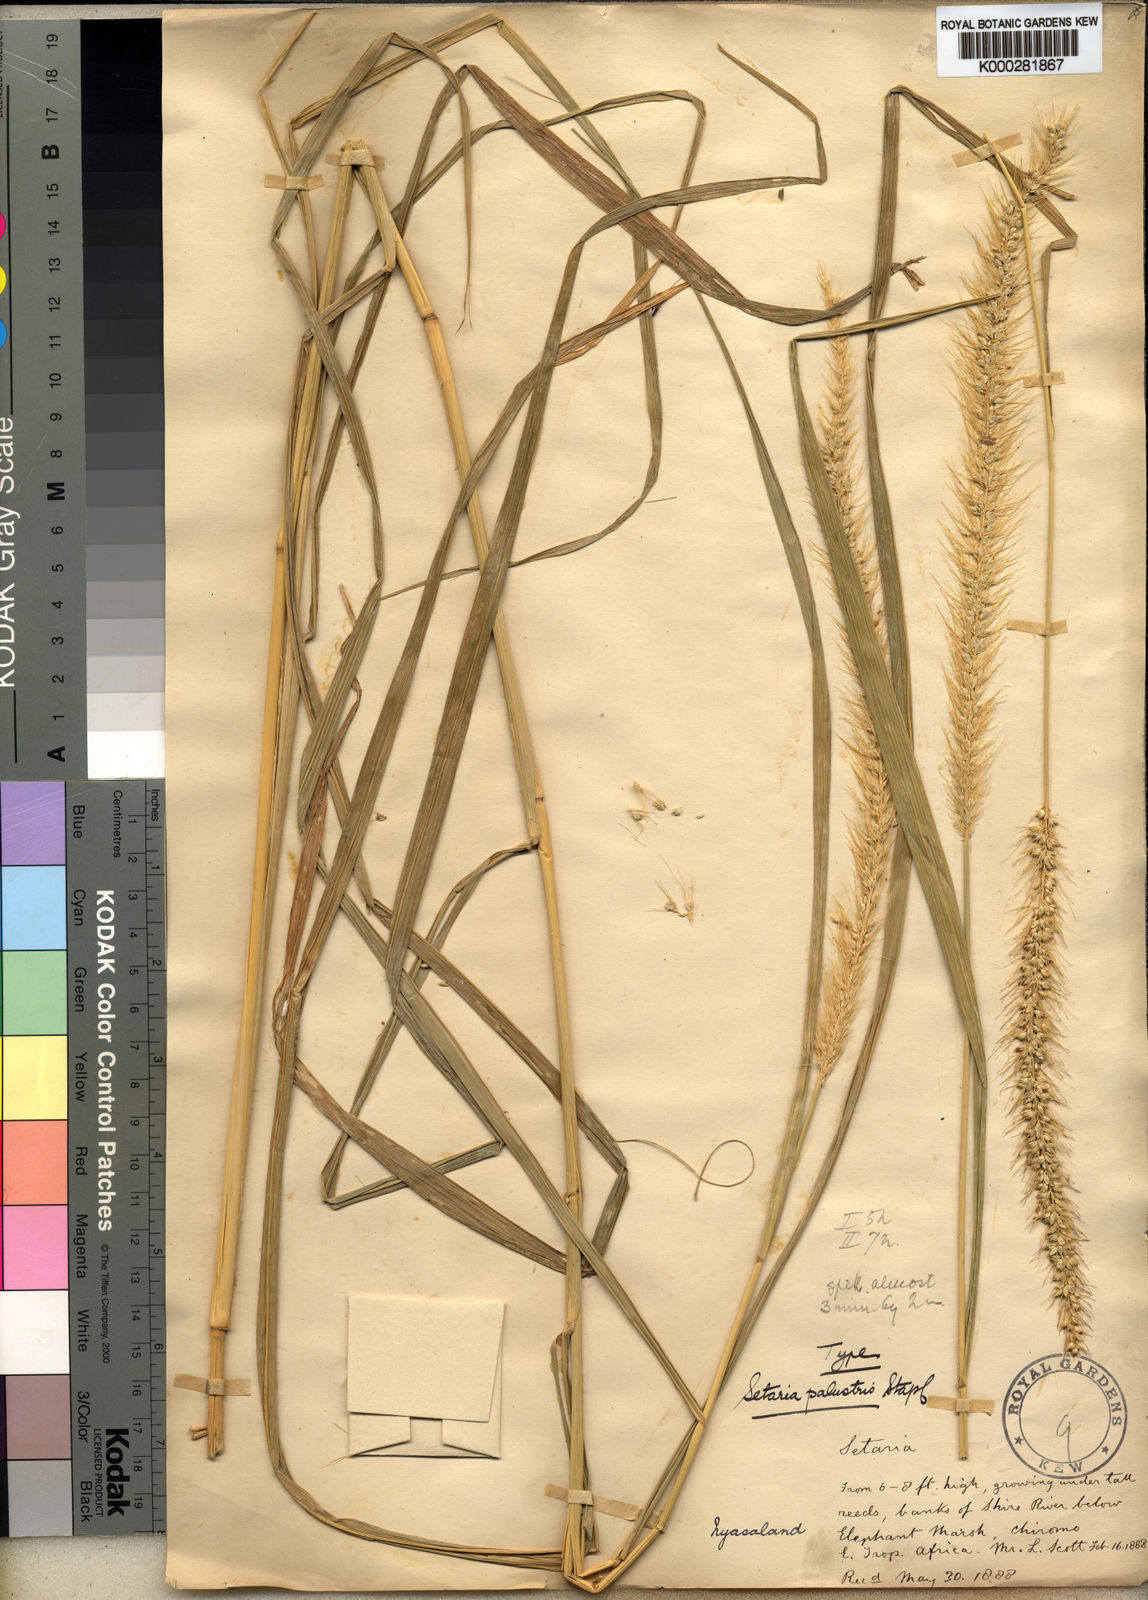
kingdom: Plantae
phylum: Tracheophyta
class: Liliopsida
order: Poales
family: Poaceae
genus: Setaria
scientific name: Setaria incrassata
